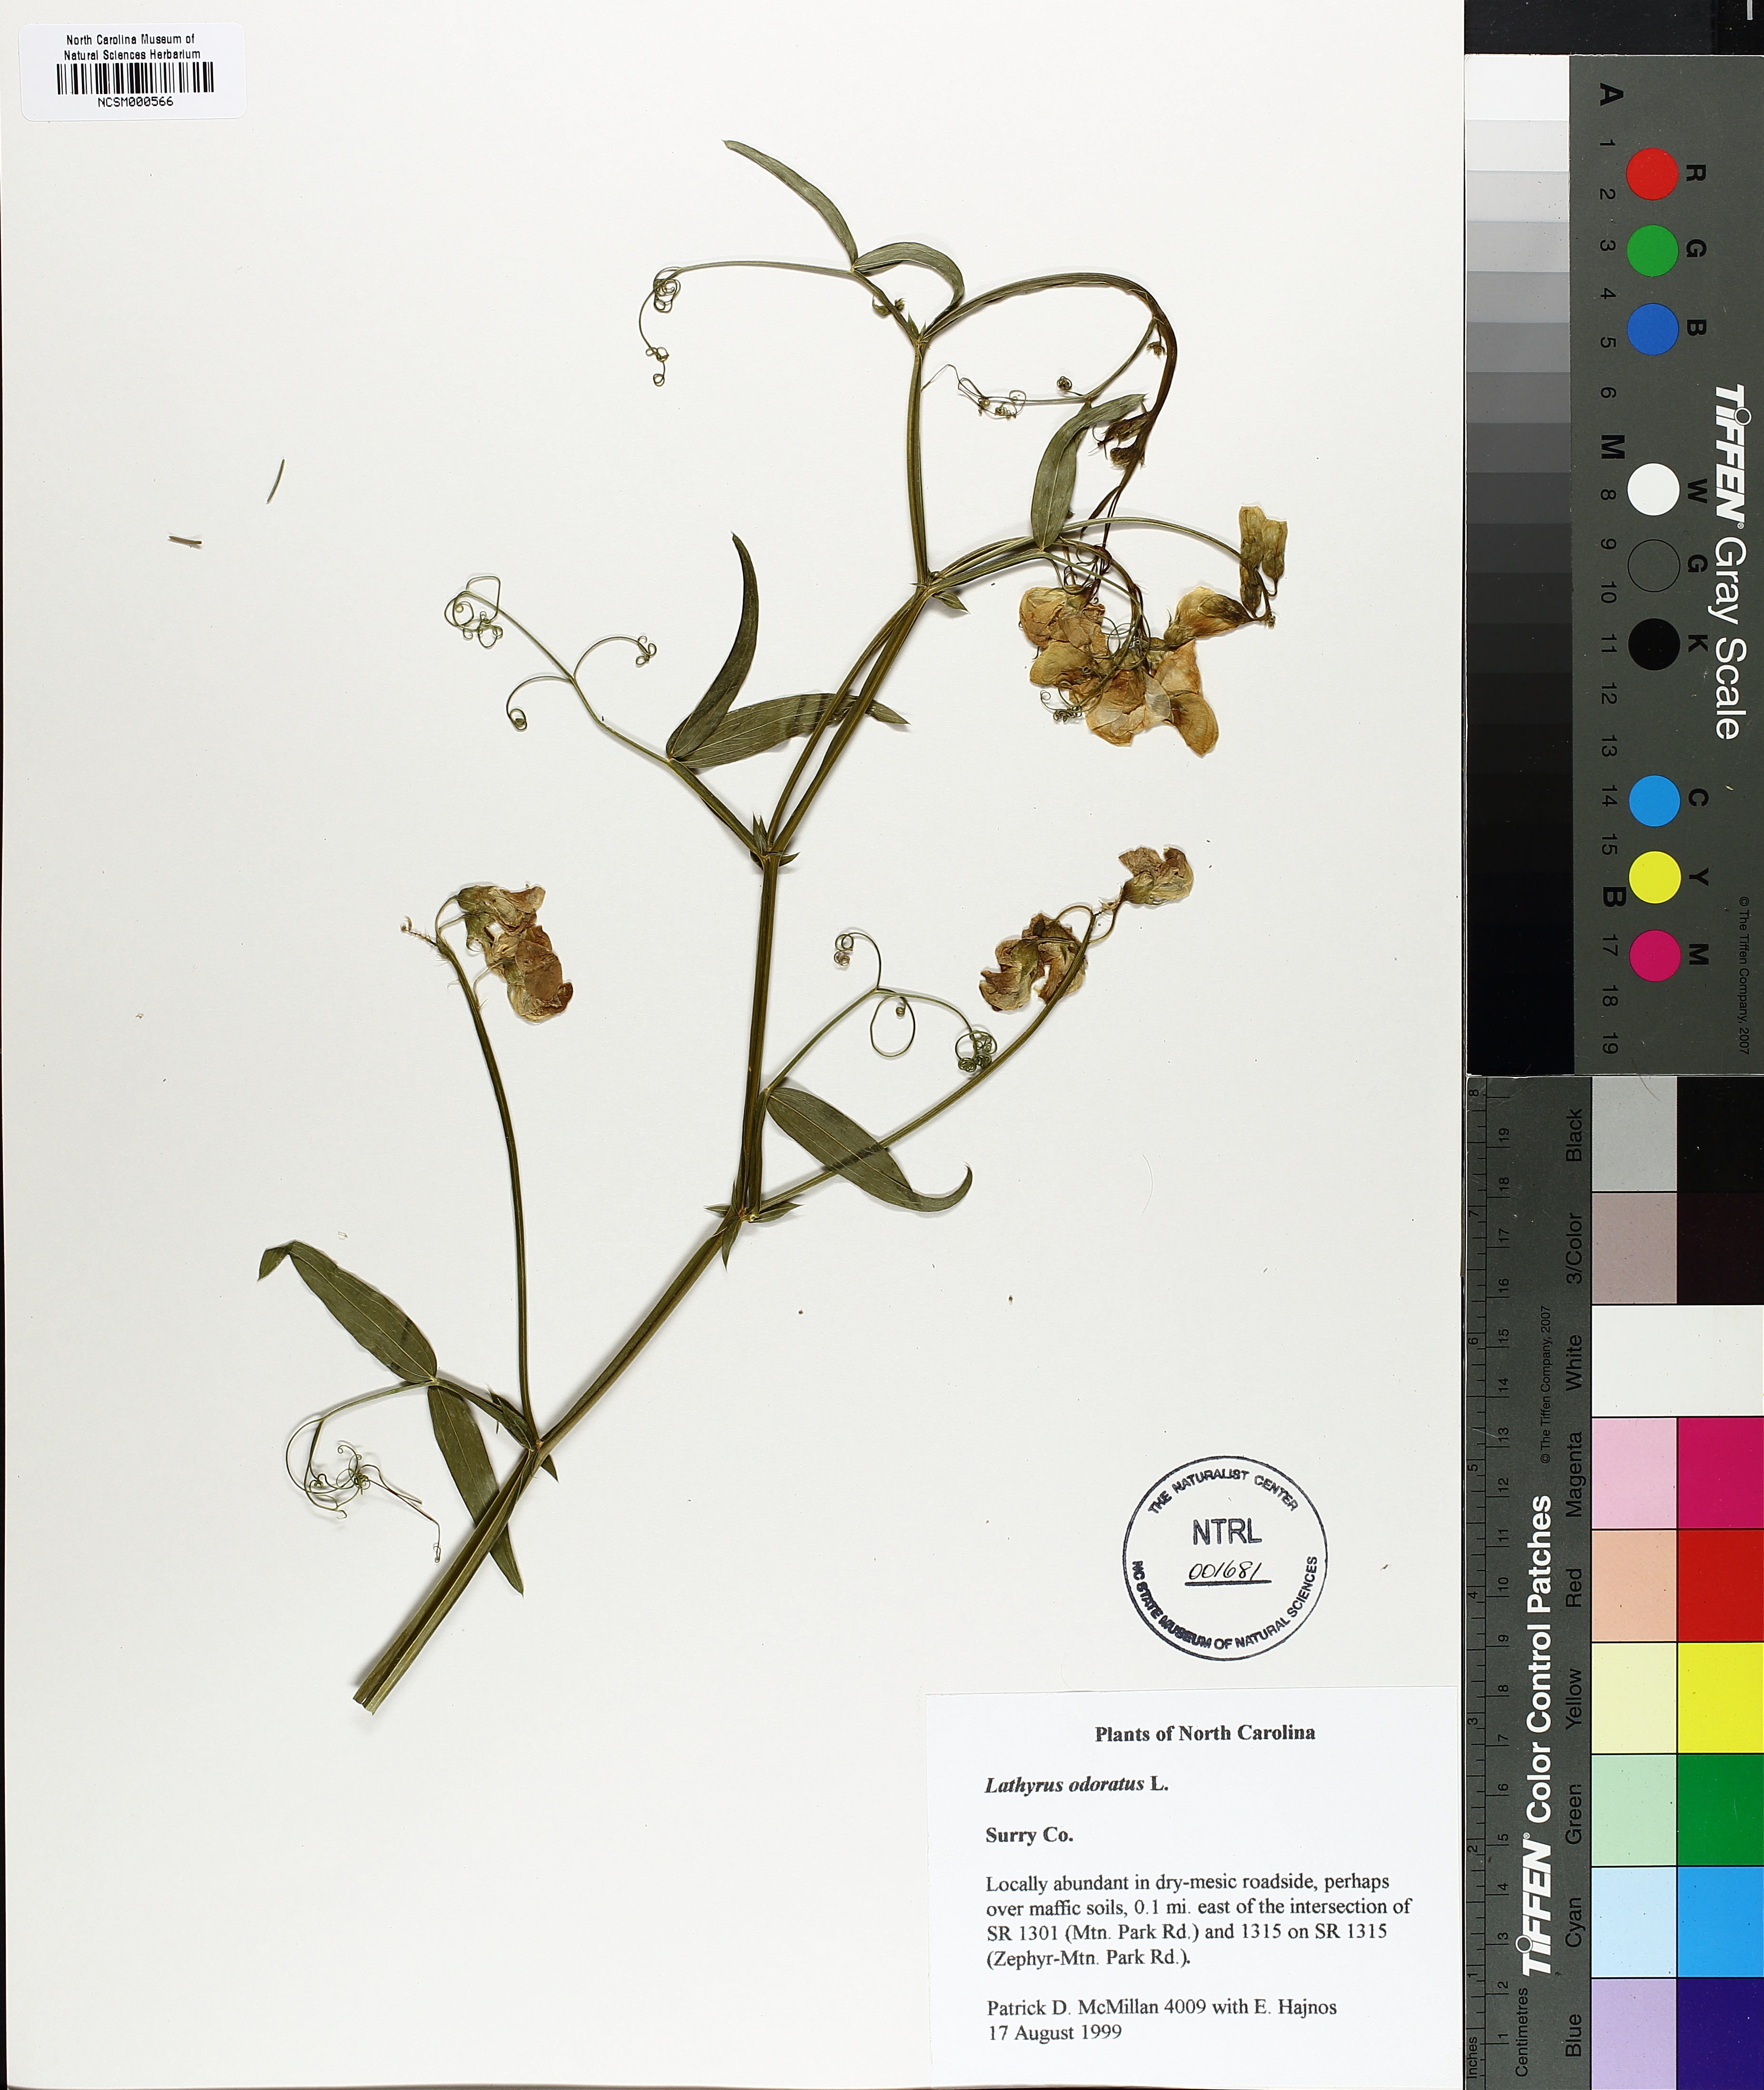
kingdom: Plantae
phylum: Tracheophyta
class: Magnoliopsida
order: Fabales
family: Fabaceae
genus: Lathyrus
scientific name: Lathyrus odoratus
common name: Sweet pea
